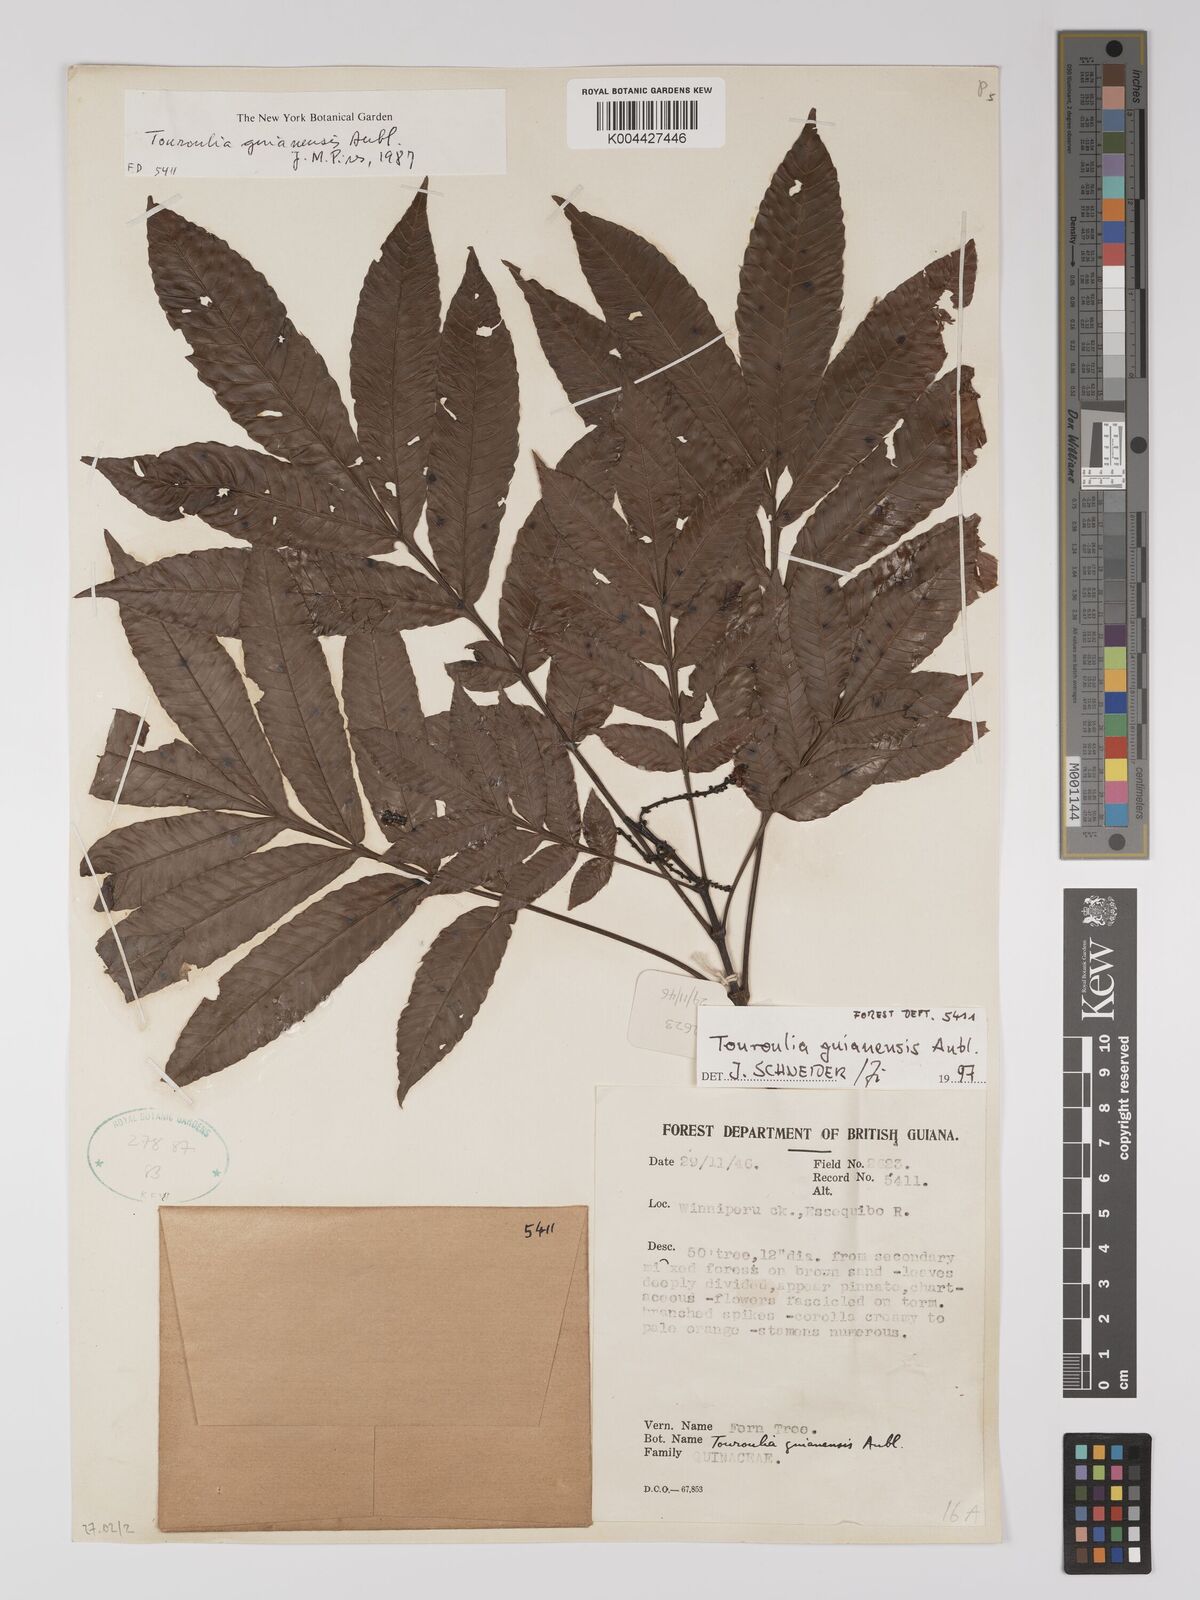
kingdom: Plantae
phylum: Tracheophyta
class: Magnoliopsida
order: Malpighiales
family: Quiinaceae
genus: Touroulia
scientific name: Touroulia guianensis
